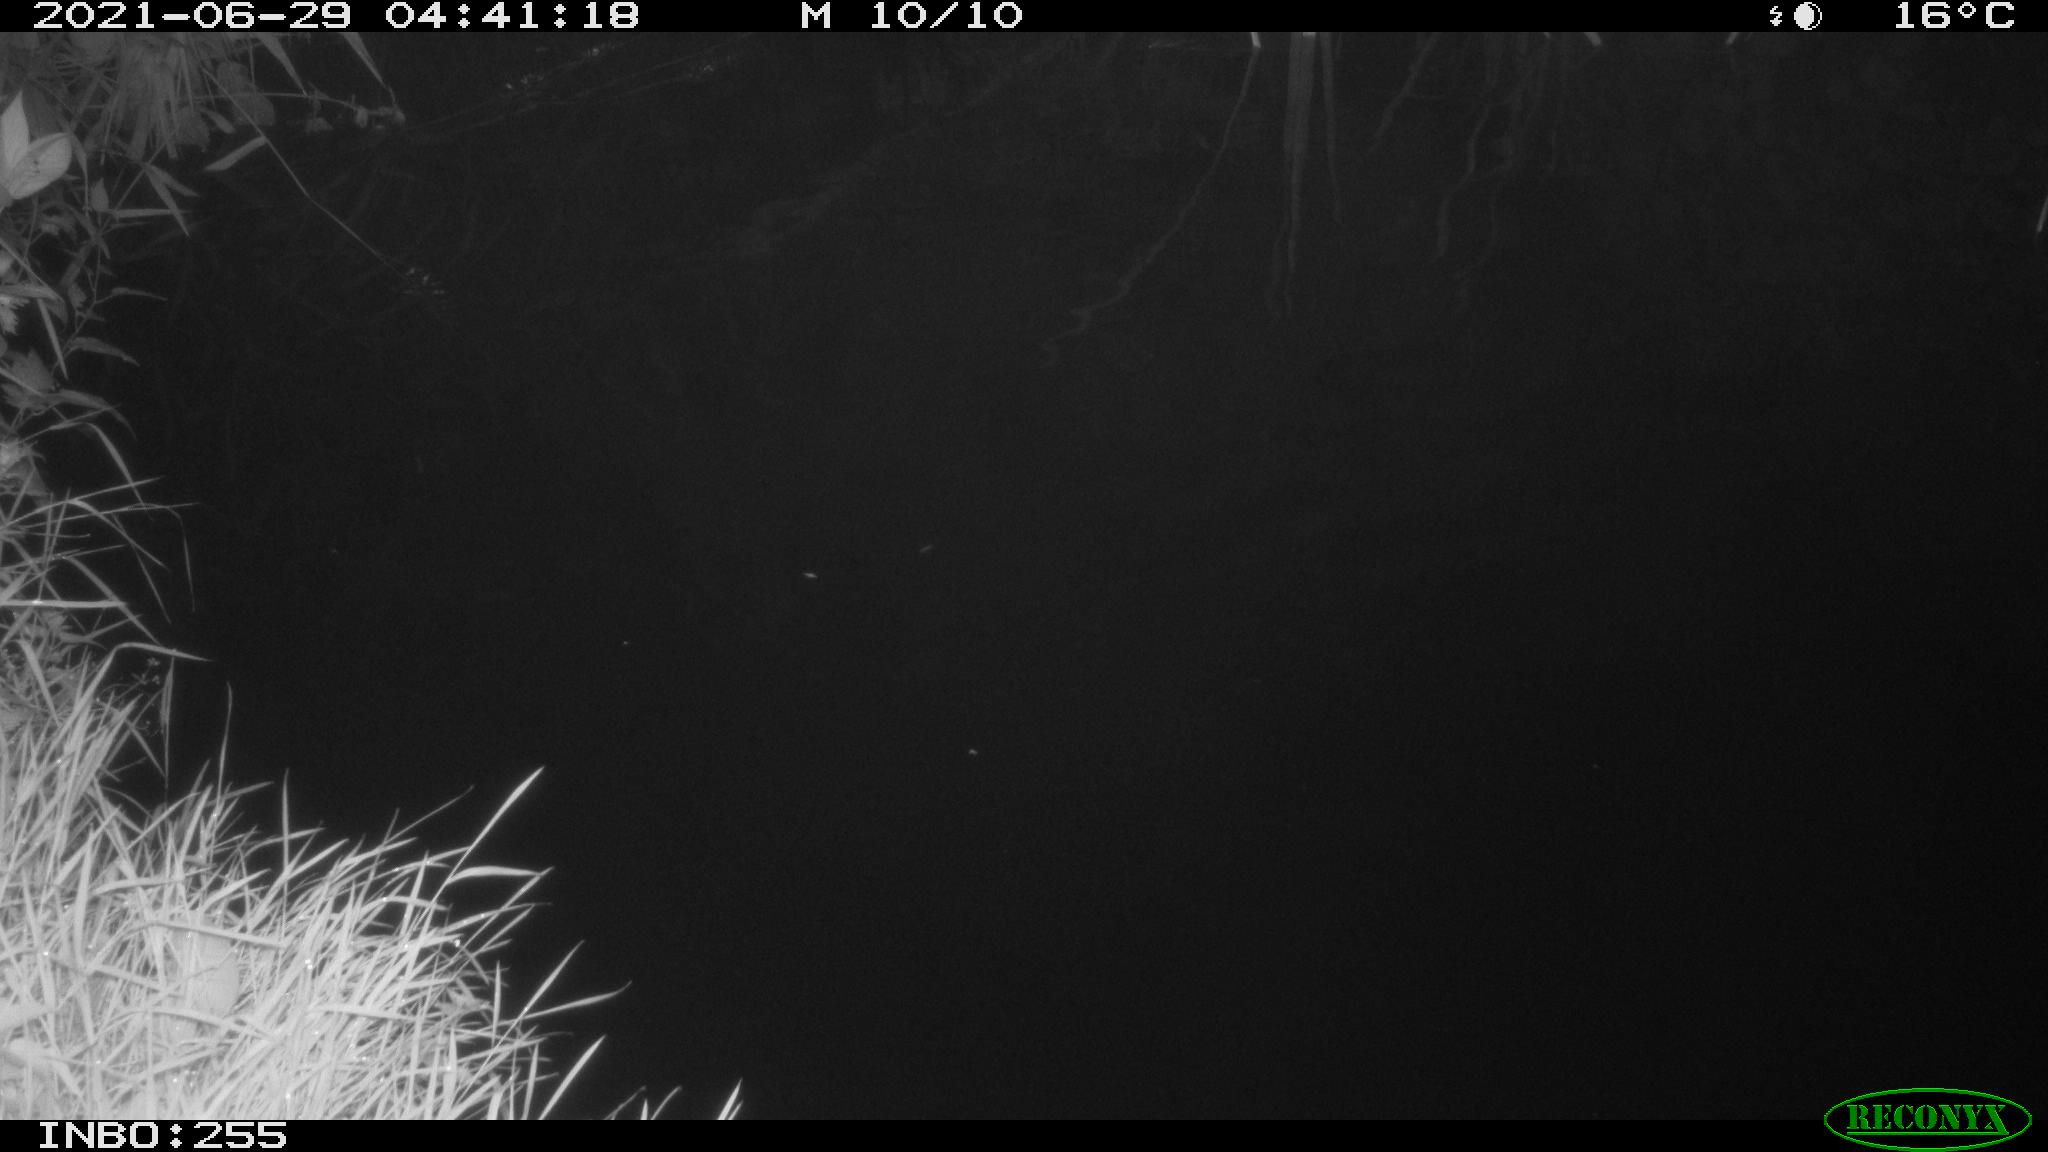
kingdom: Animalia
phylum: Chordata
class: Aves
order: Anseriformes
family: Anatidae
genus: Anas
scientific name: Anas
